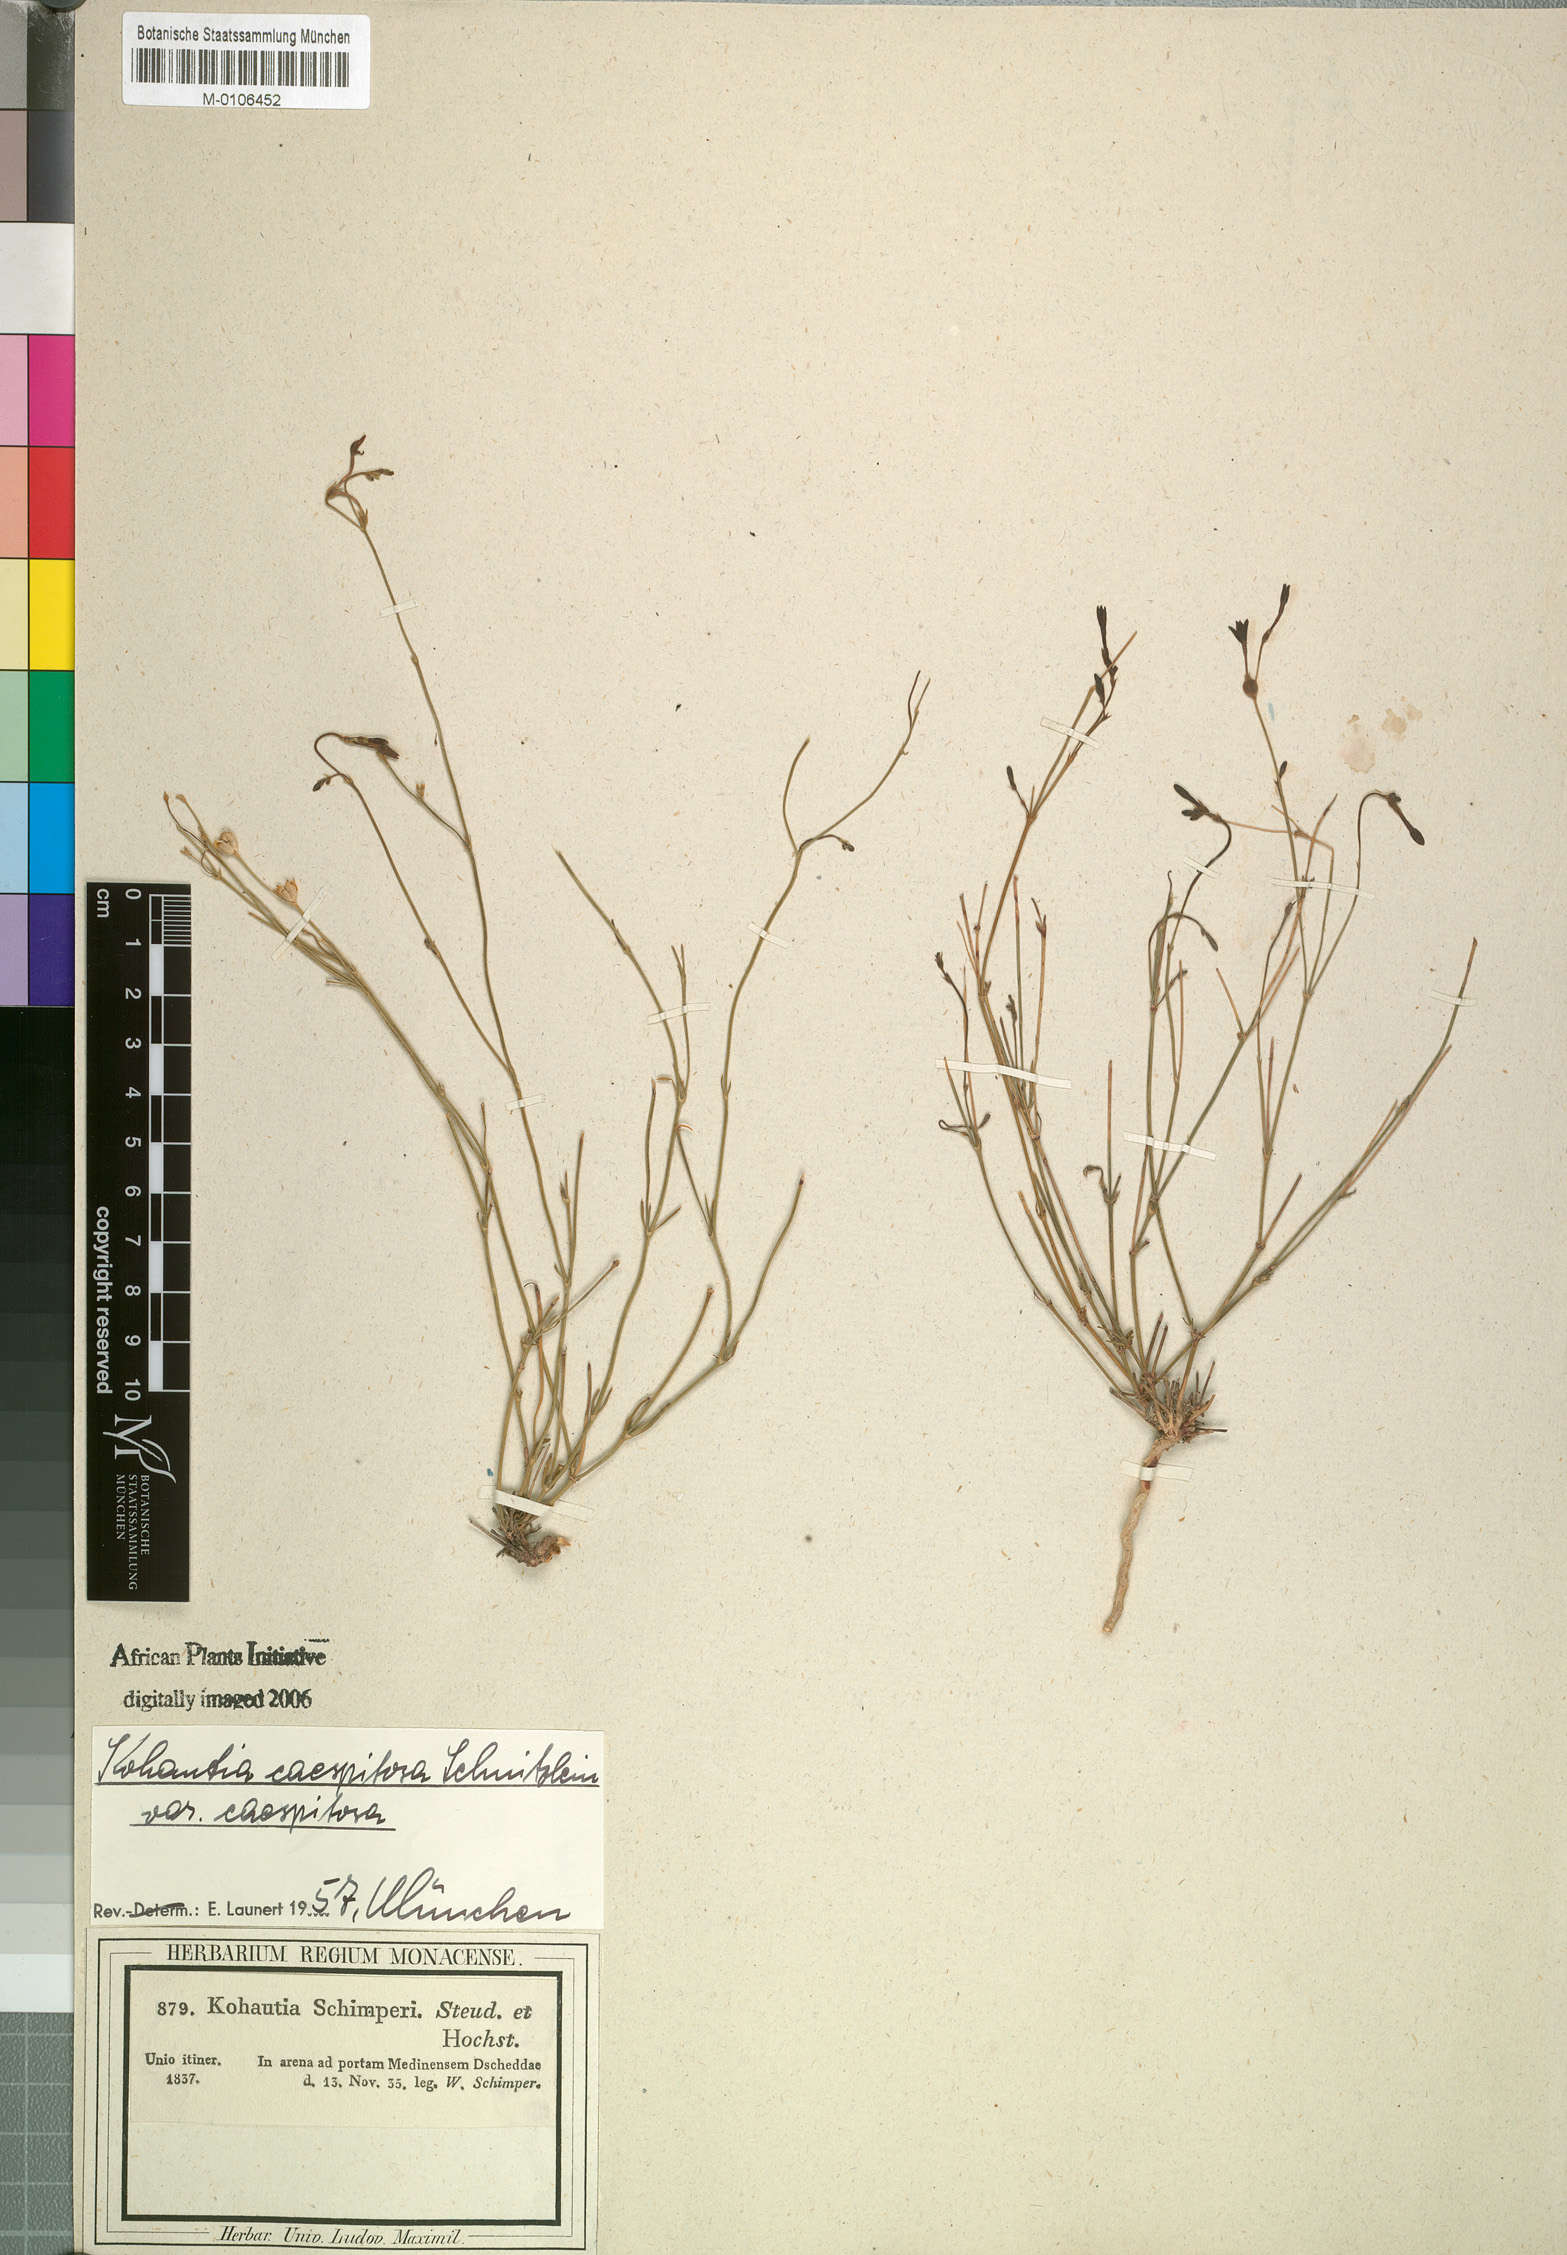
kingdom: Plantae
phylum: Tracheophyta
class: Magnoliopsida
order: Gentianales
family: Rubiaceae
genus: Kohautia
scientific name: Kohautia caespitosa
